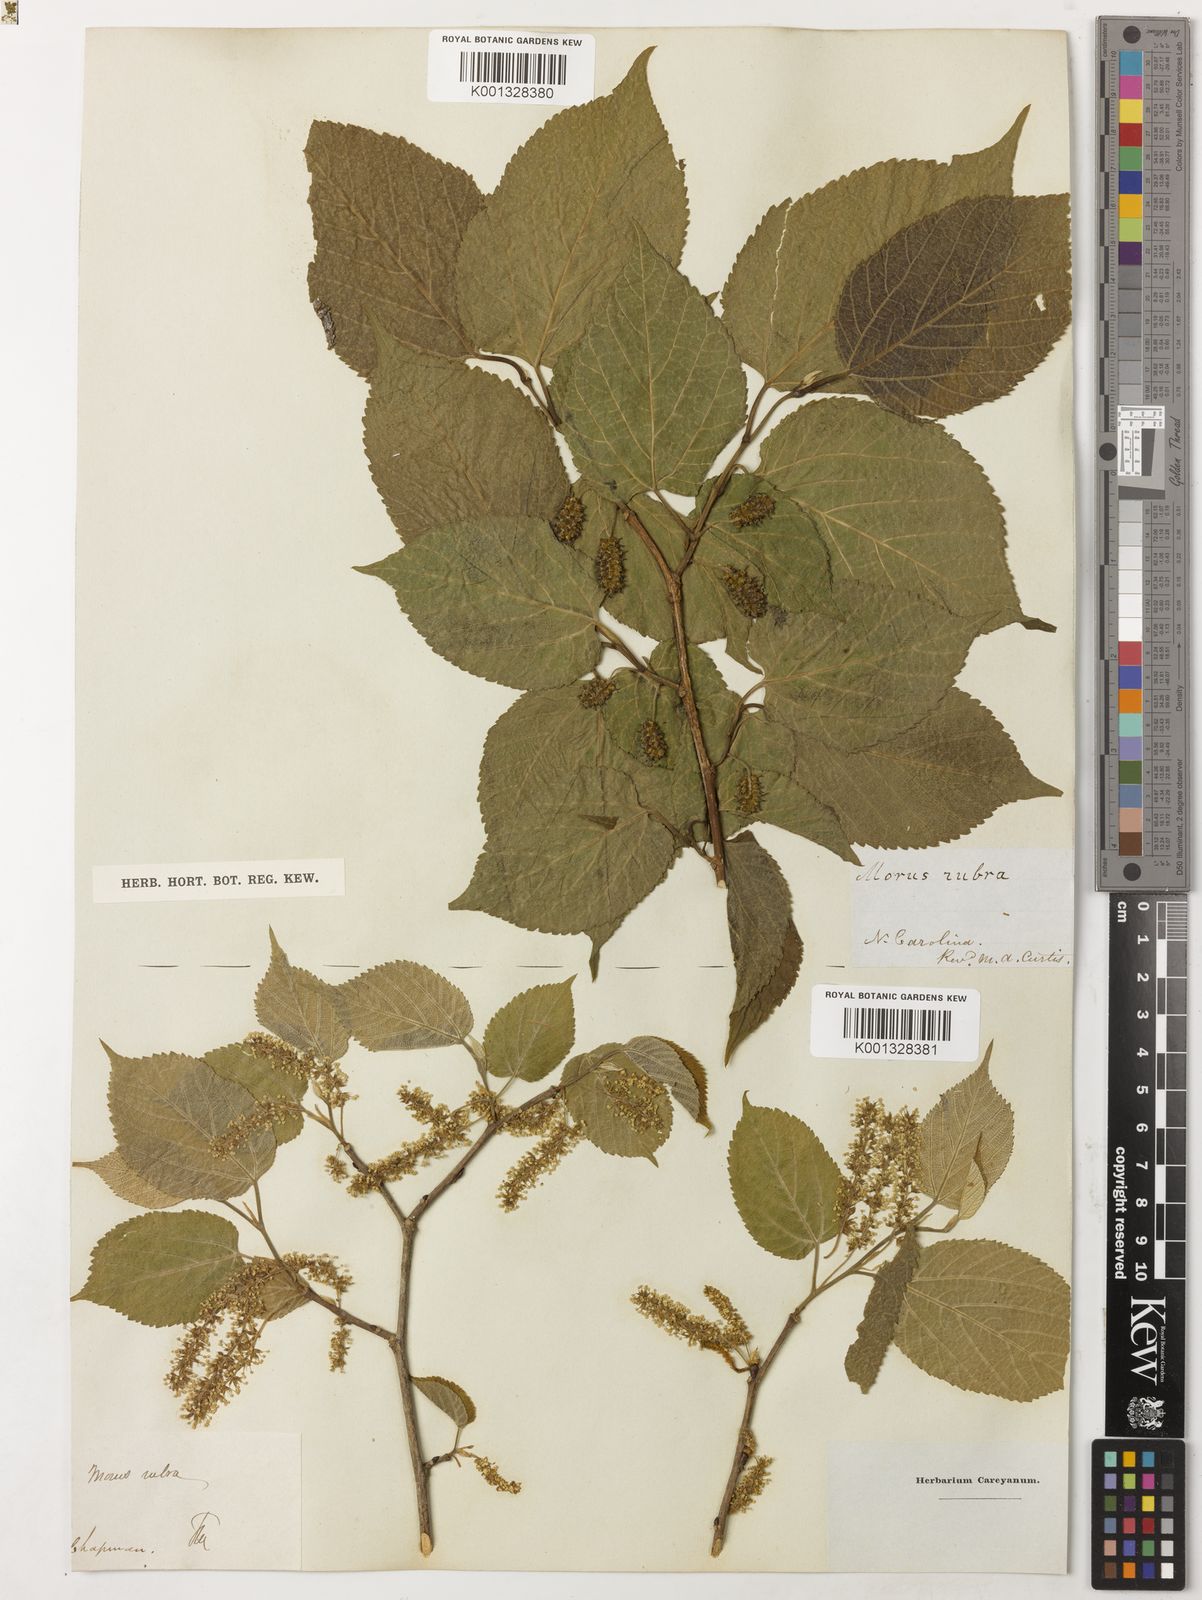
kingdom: Plantae
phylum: Tracheophyta
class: Magnoliopsida
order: Rosales
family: Moraceae
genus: Morus
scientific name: Morus rubra
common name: Red mulberry
